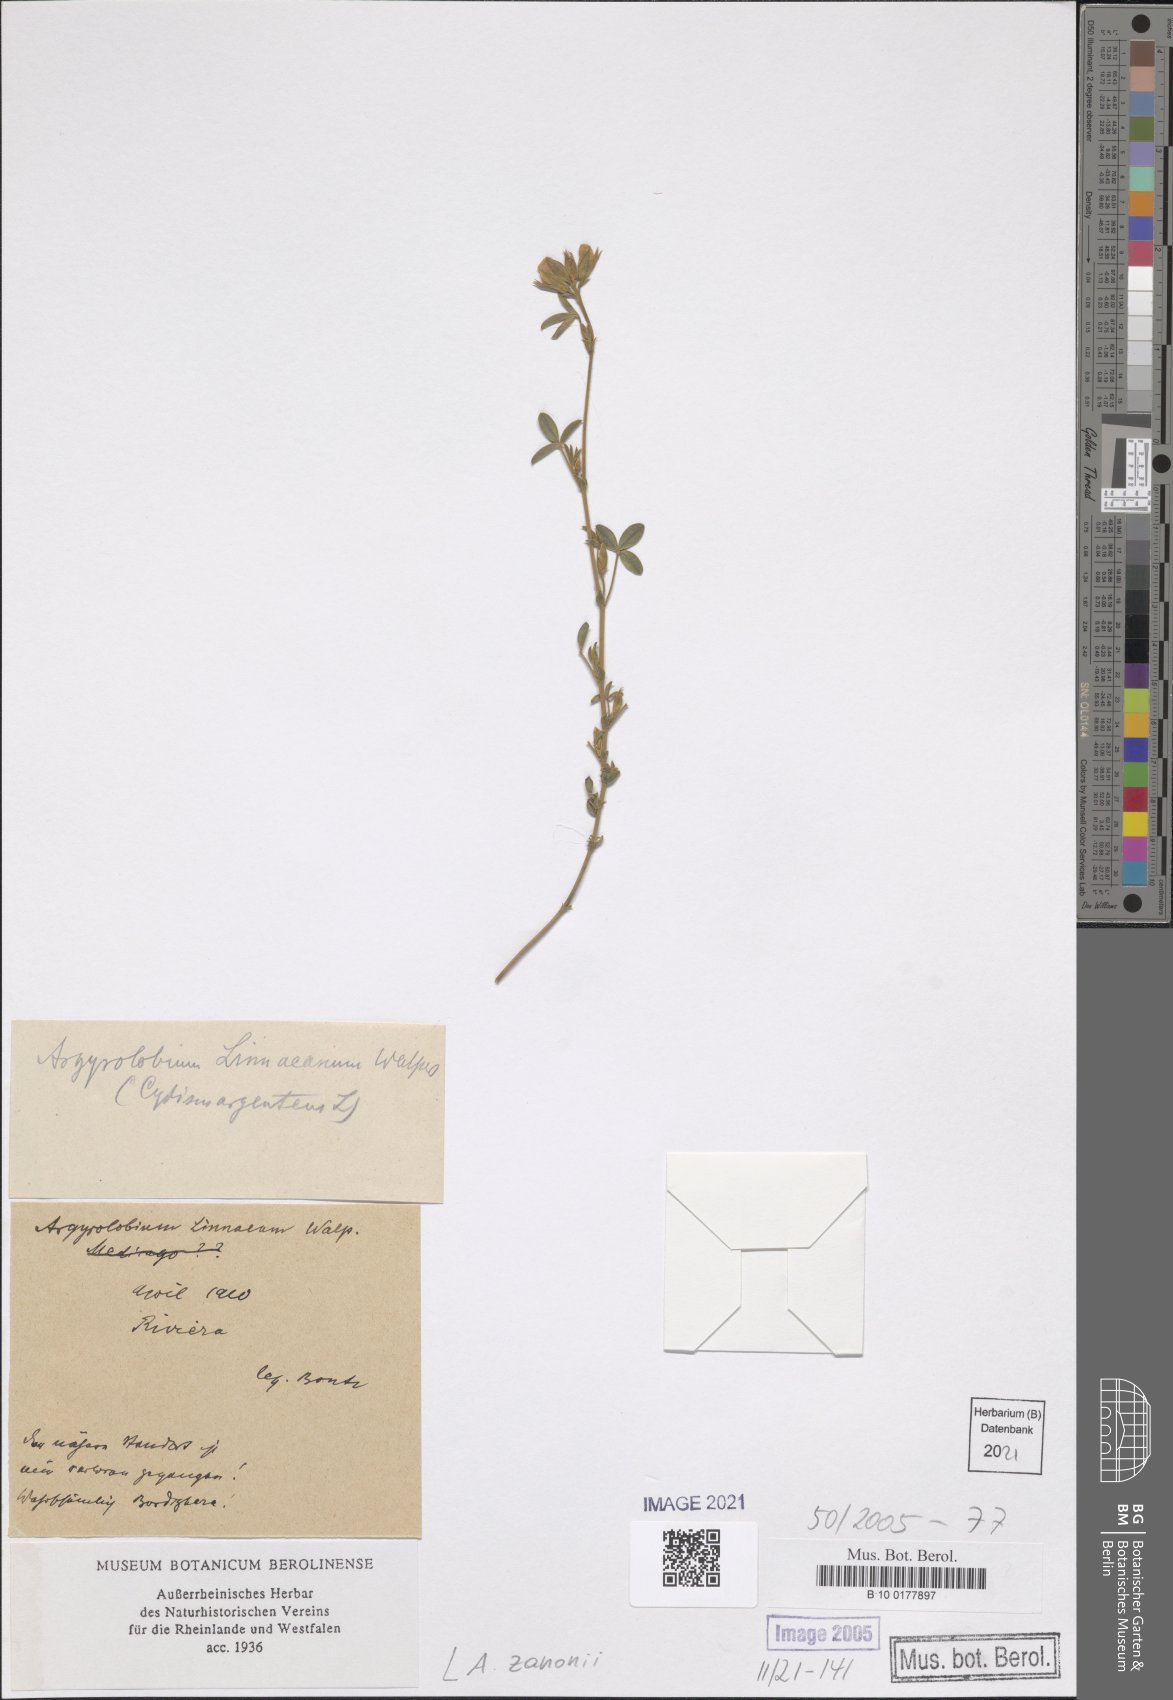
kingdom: Plantae
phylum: Tracheophyta
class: Magnoliopsida
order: Fabales
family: Fabaceae
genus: Argyrolobium
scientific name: Argyrolobium zanonii
